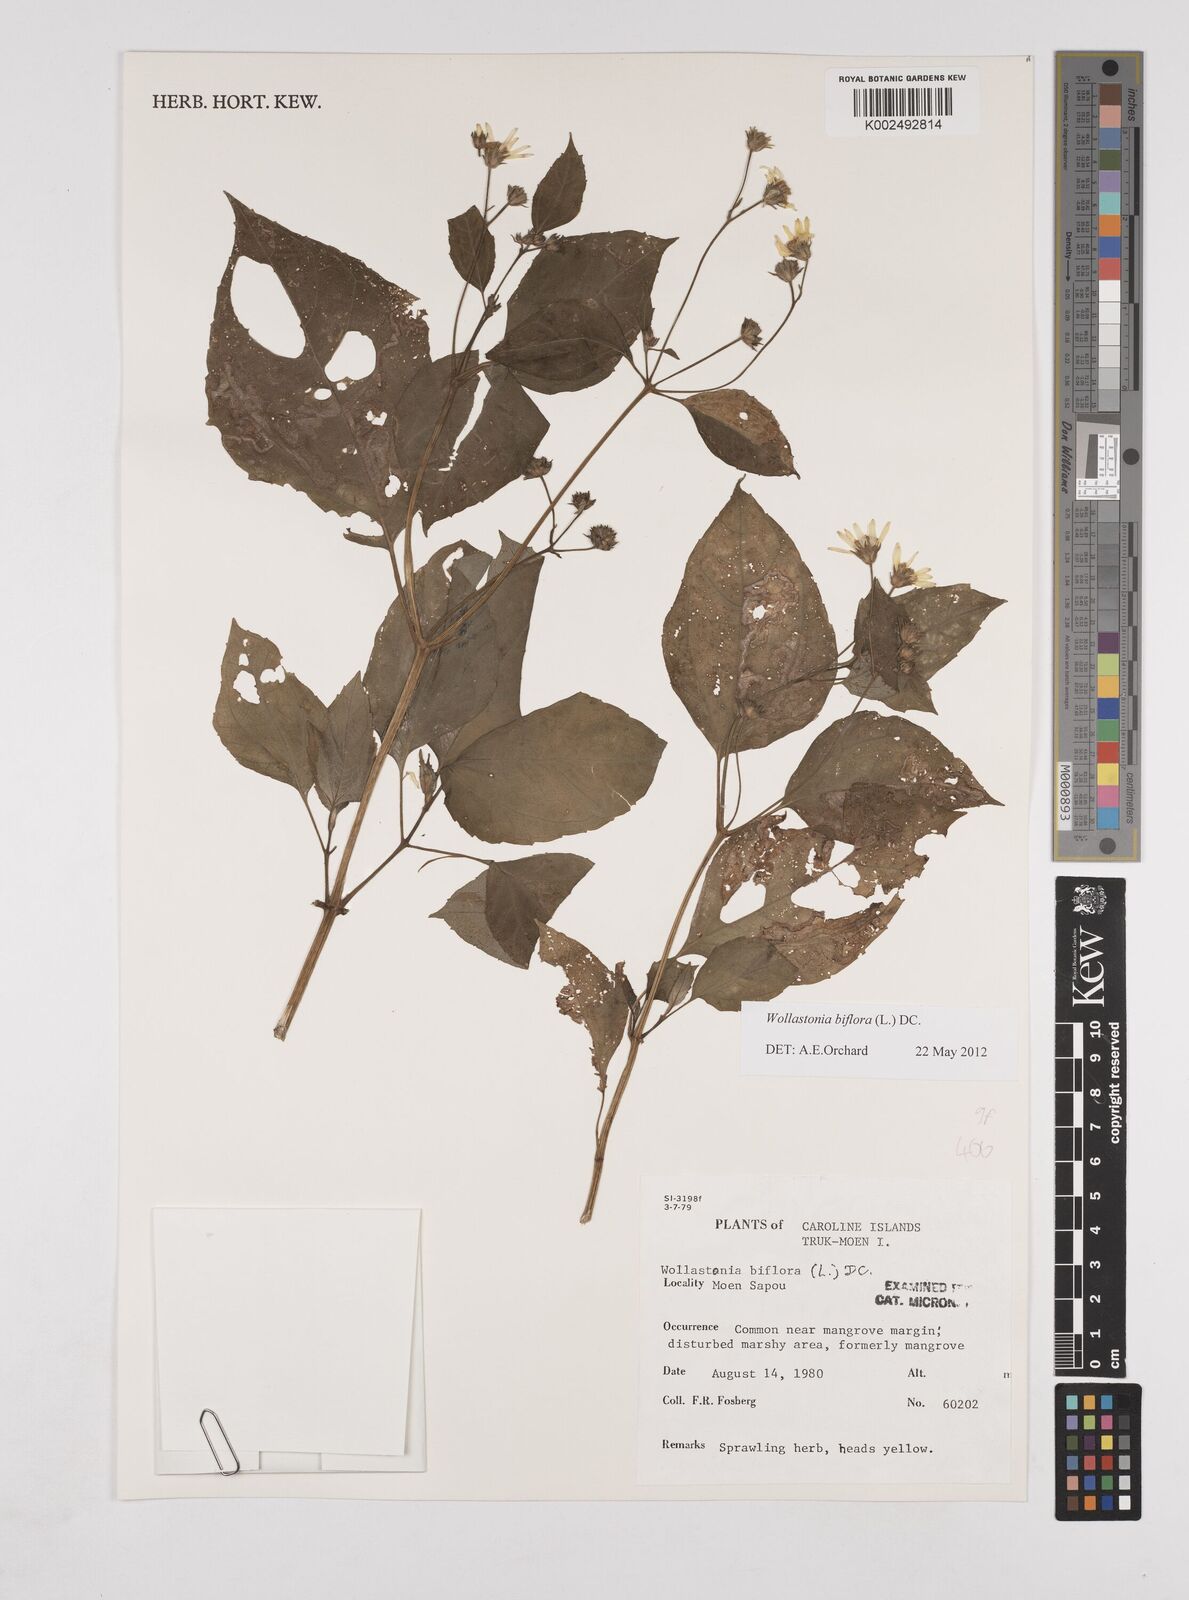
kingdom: Plantae
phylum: Tracheophyta
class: Magnoliopsida
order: Asterales
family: Asteraceae
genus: Wollastonia
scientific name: Wollastonia biflora
